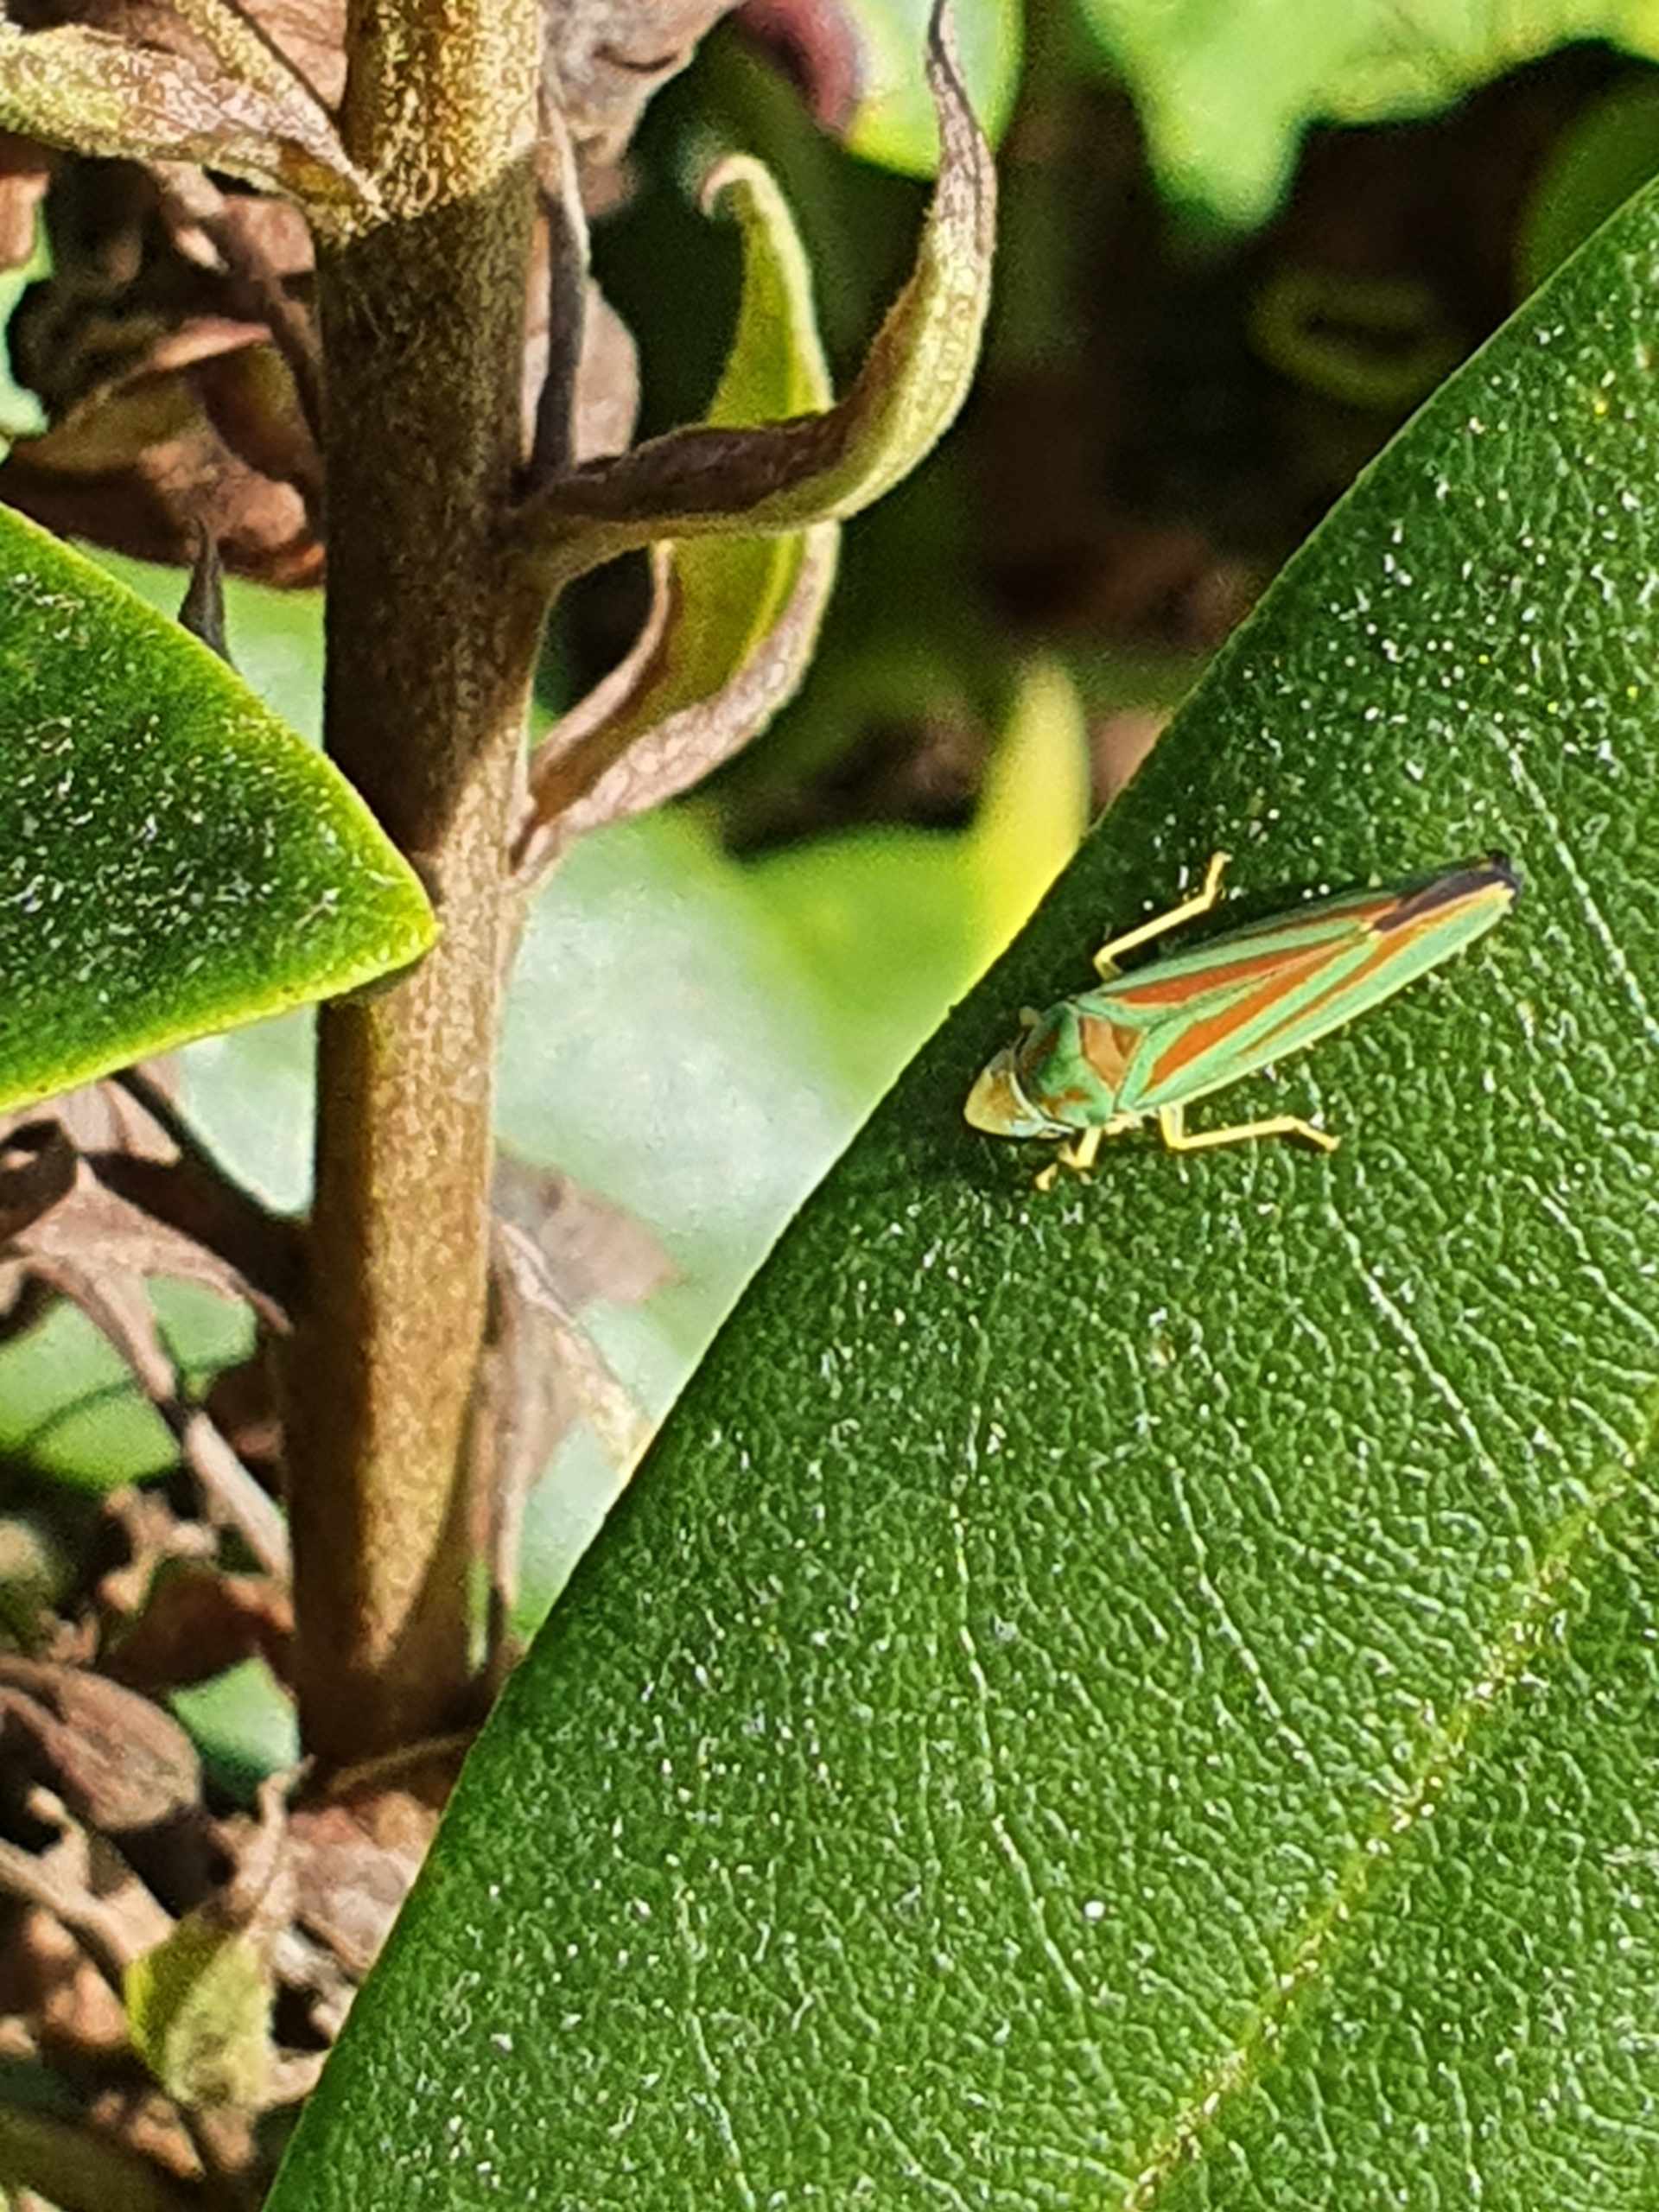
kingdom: Animalia
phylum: Arthropoda
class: Insecta
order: Hemiptera
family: Cicadellidae
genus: Graphocephala
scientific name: Graphocephala fennahi
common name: Rododendroncikade
